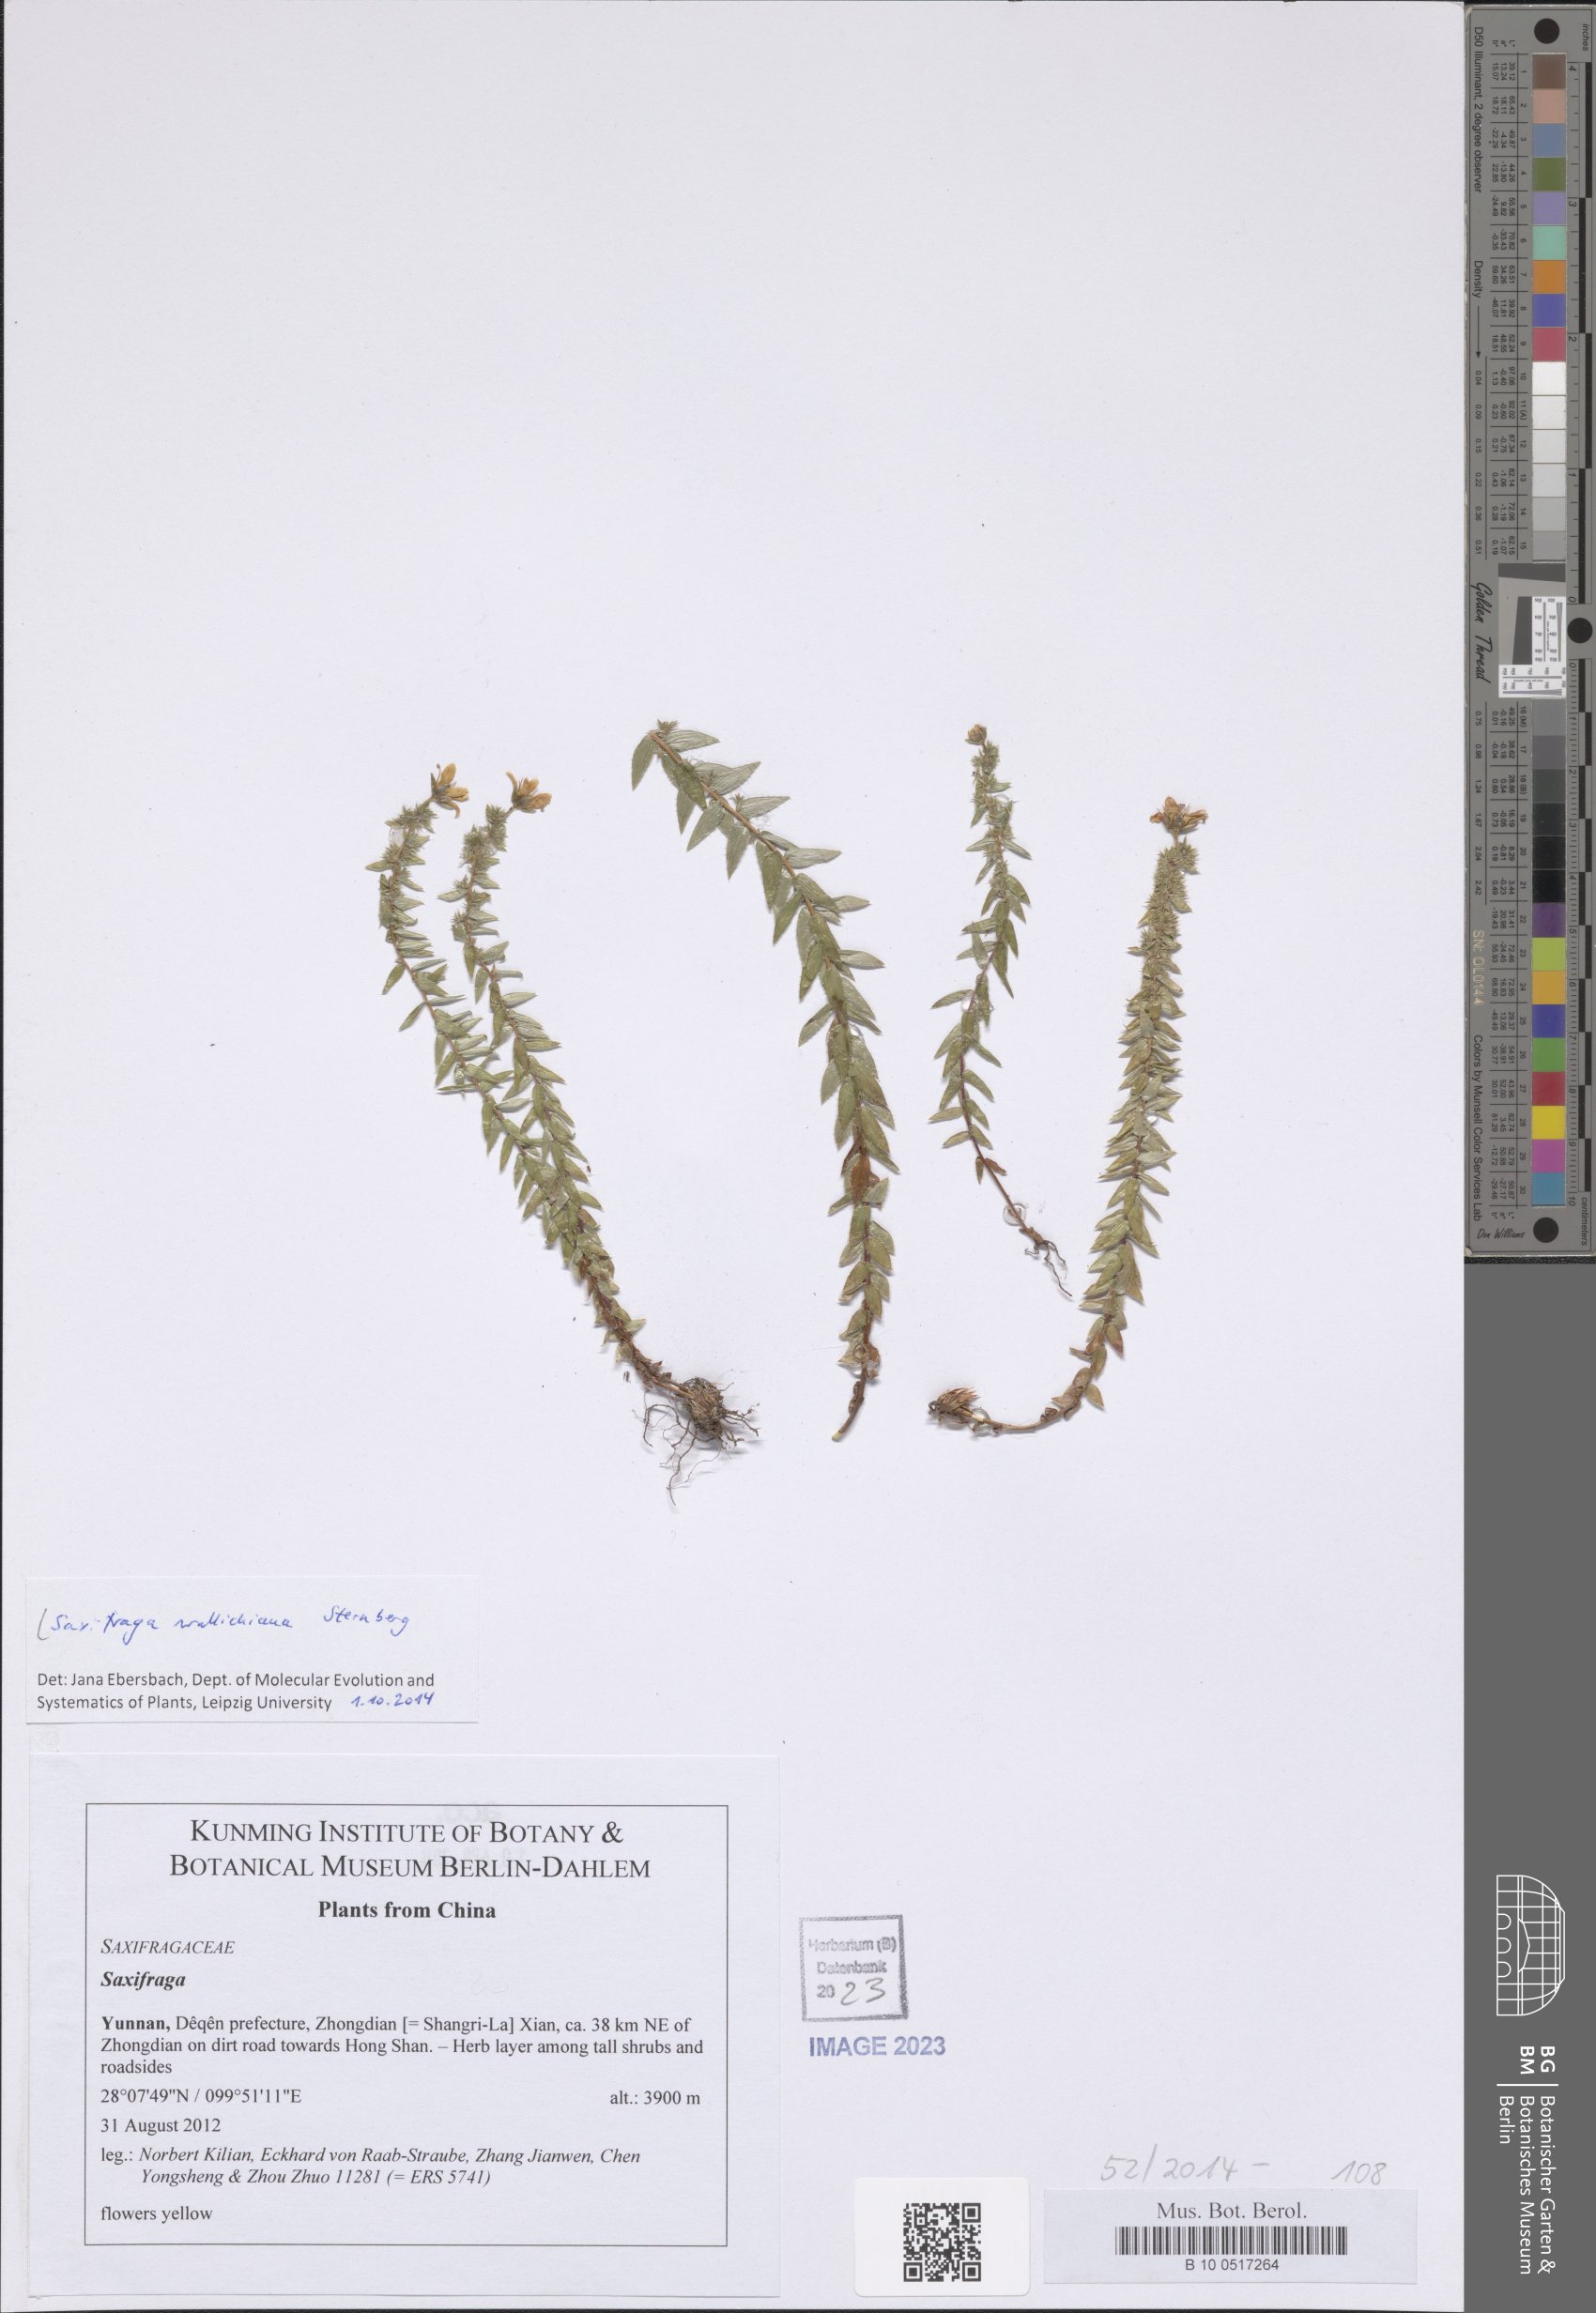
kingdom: Plantae
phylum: Tracheophyta
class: Magnoliopsida
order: Saxifragales
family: Saxifragaceae
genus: Saxifraga
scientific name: Saxifraga wallichiana
